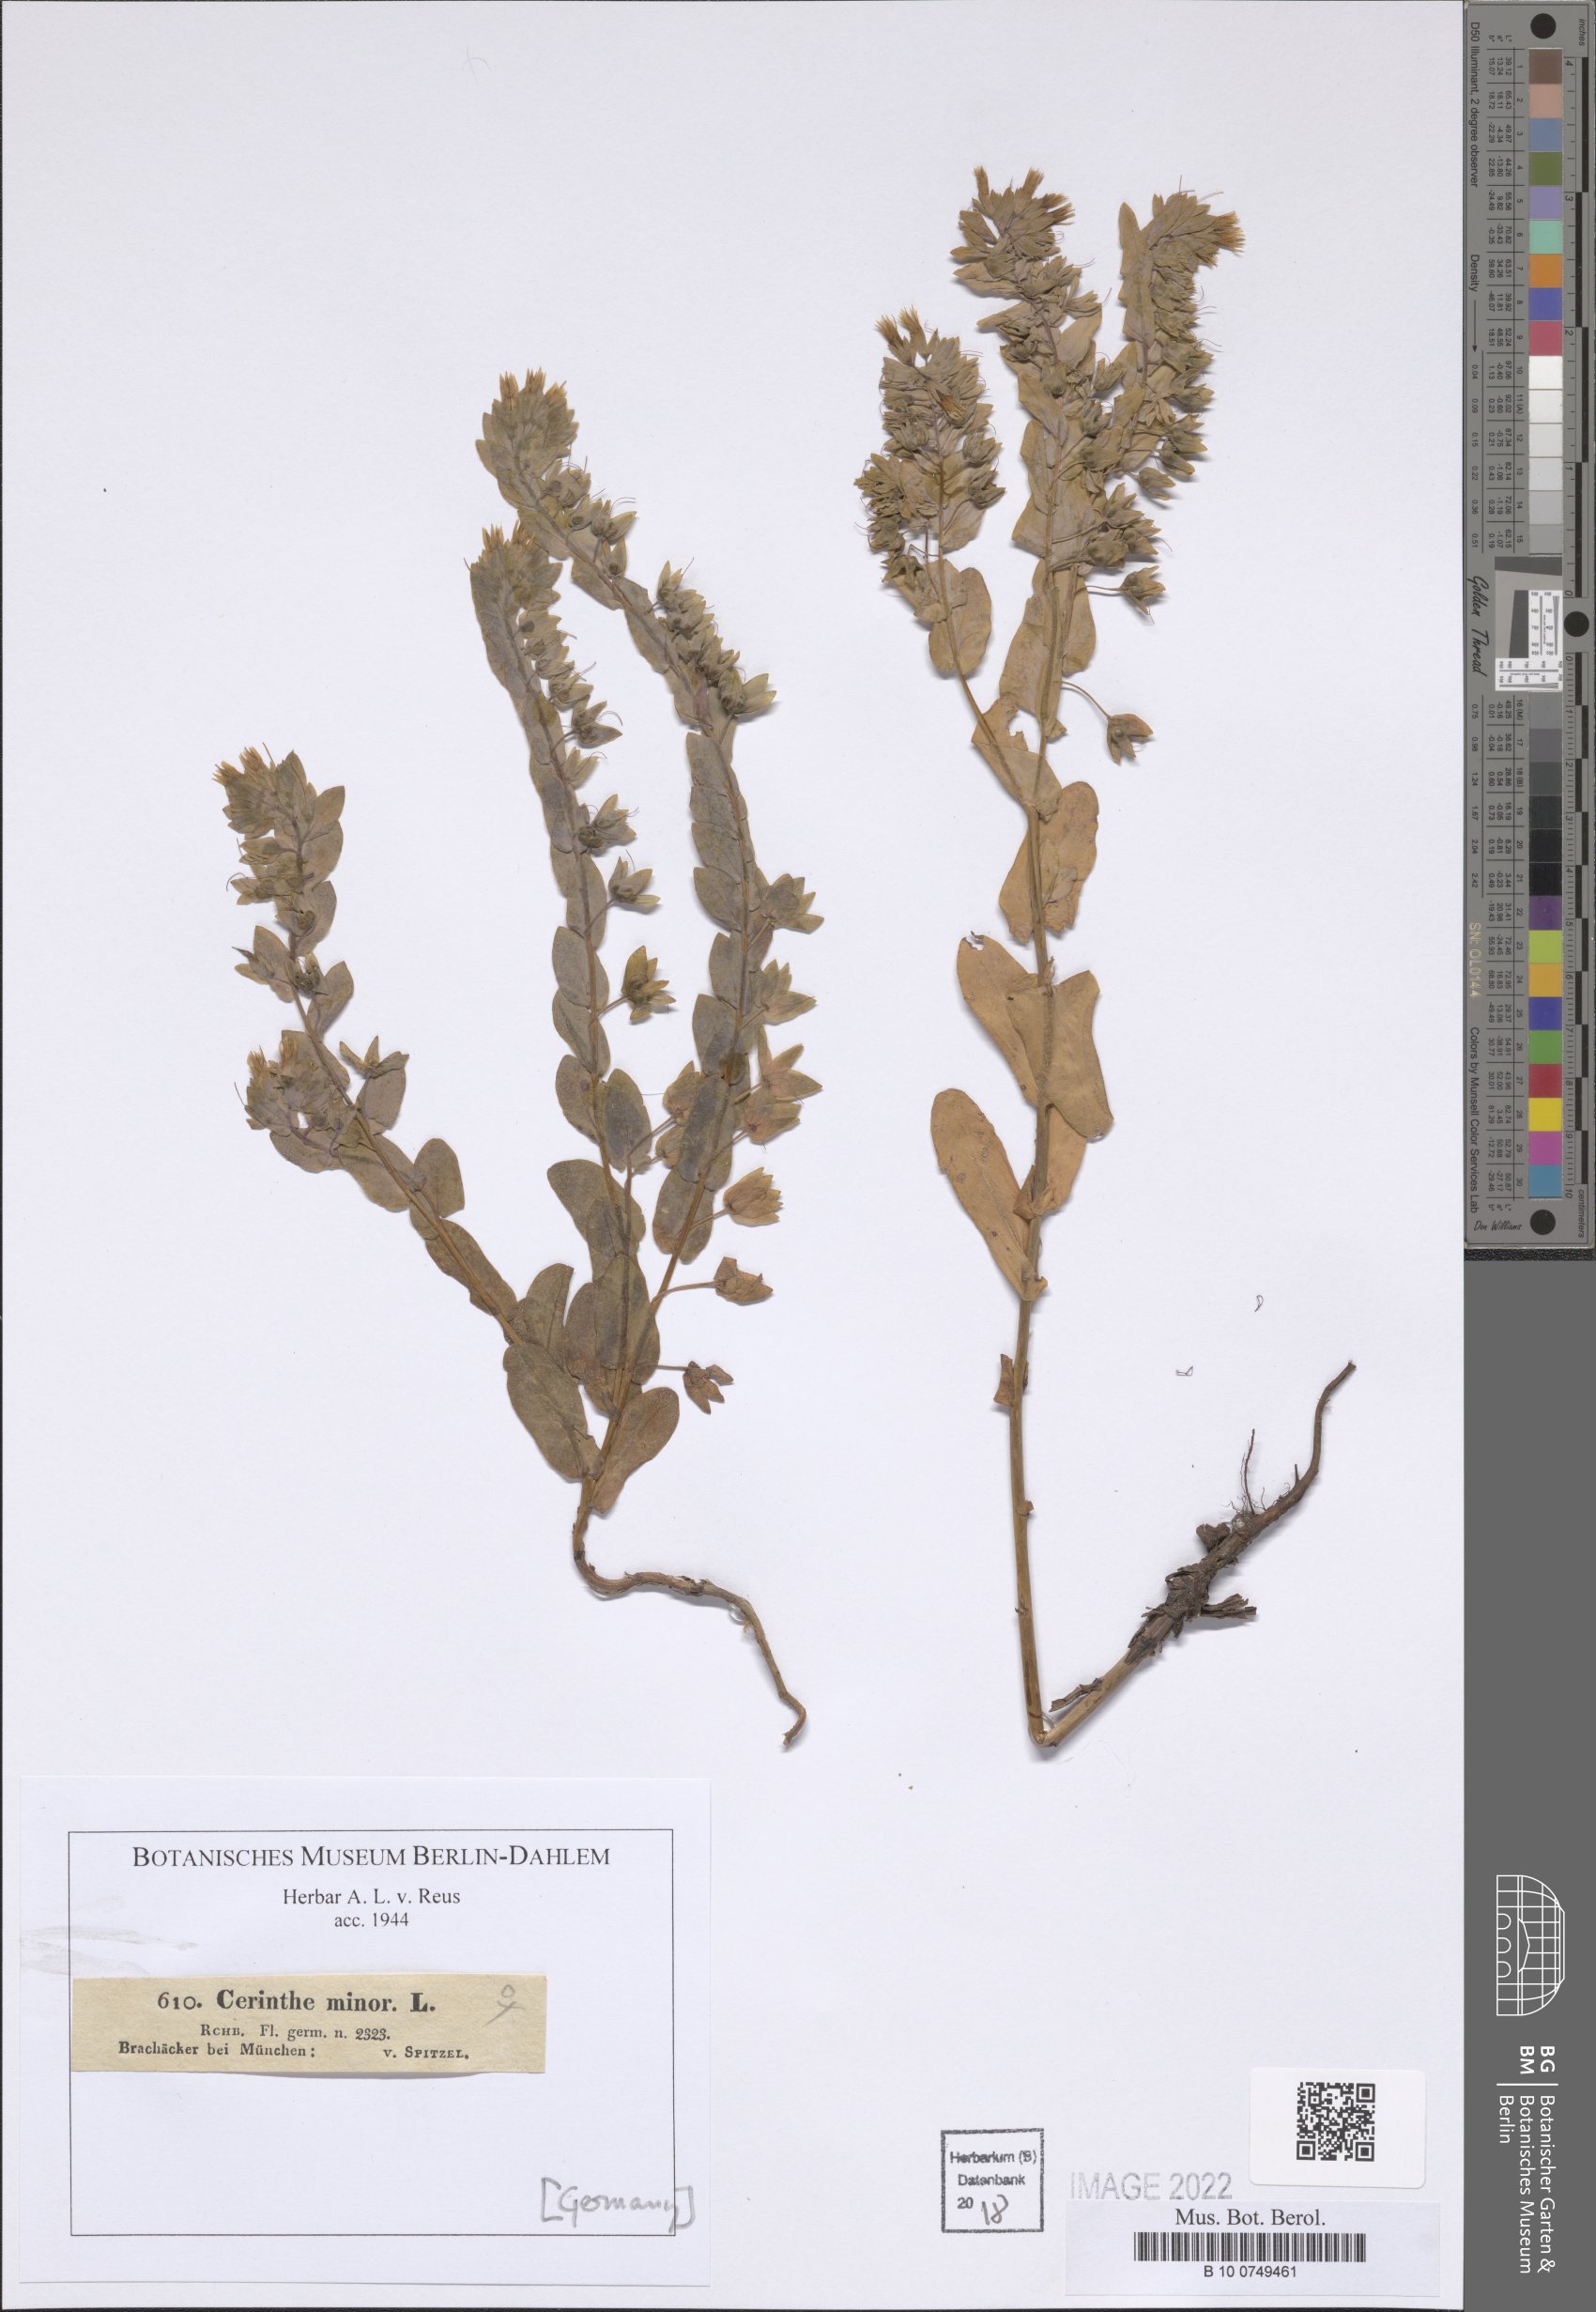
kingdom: Plantae
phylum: Tracheophyta
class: Magnoliopsida
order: Boraginales
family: Boraginaceae
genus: Cerinthe
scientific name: Cerinthe minor
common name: Lesser honeywort
